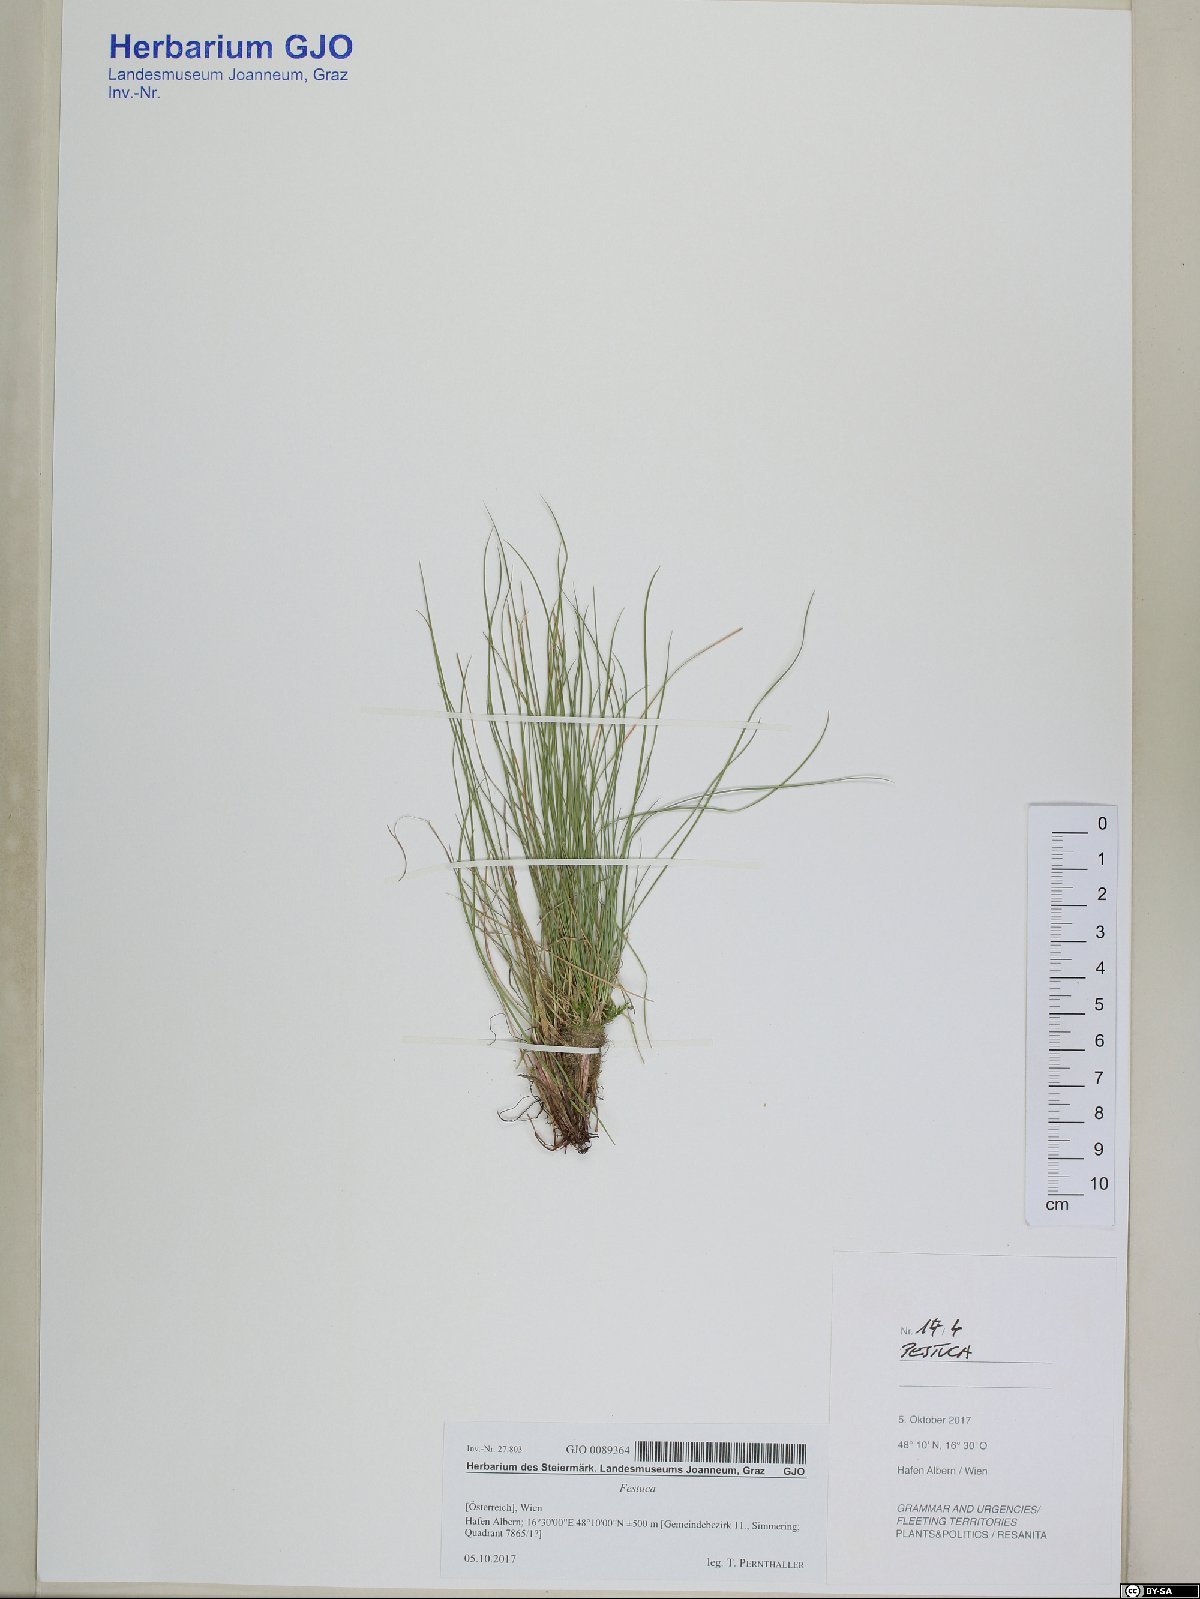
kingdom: Plantae
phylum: Tracheophyta
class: Liliopsida
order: Poales
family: Poaceae
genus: Festuca
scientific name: Festuca
